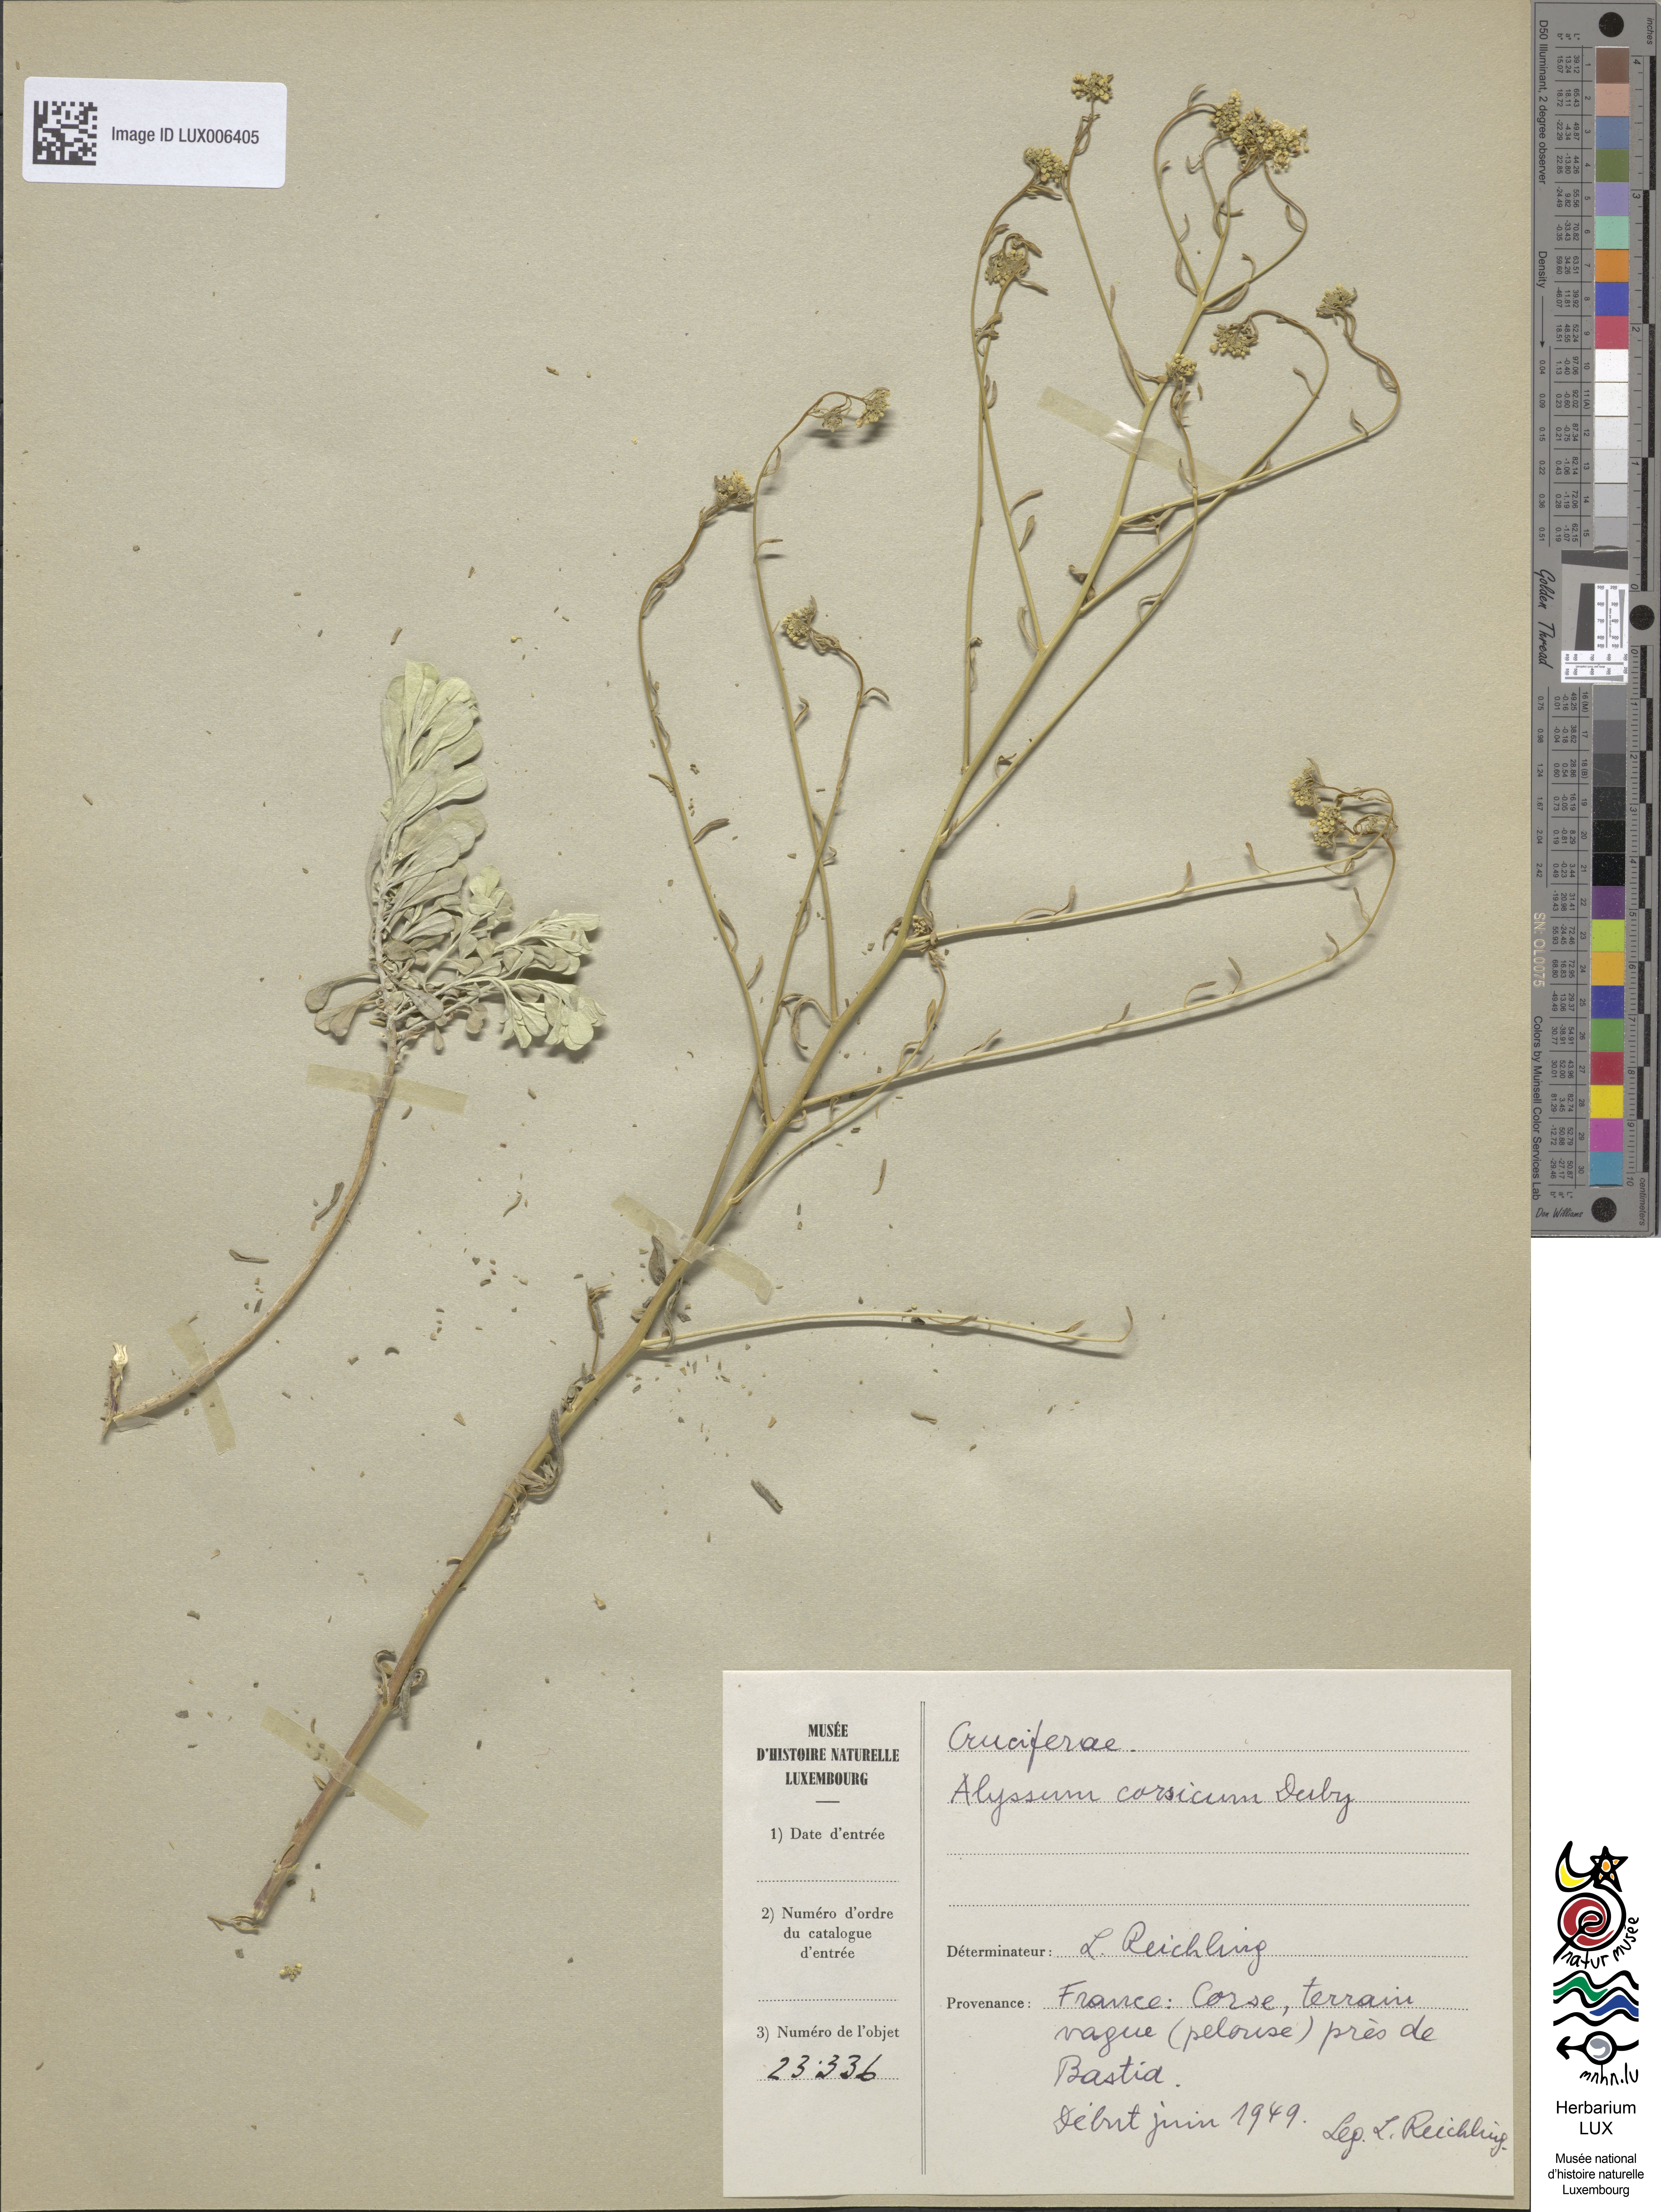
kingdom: Plantae
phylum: Tracheophyta
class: Magnoliopsida
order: Brassicales
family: Brassicaceae
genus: Odontarrhena
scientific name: Odontarrhena corsica
